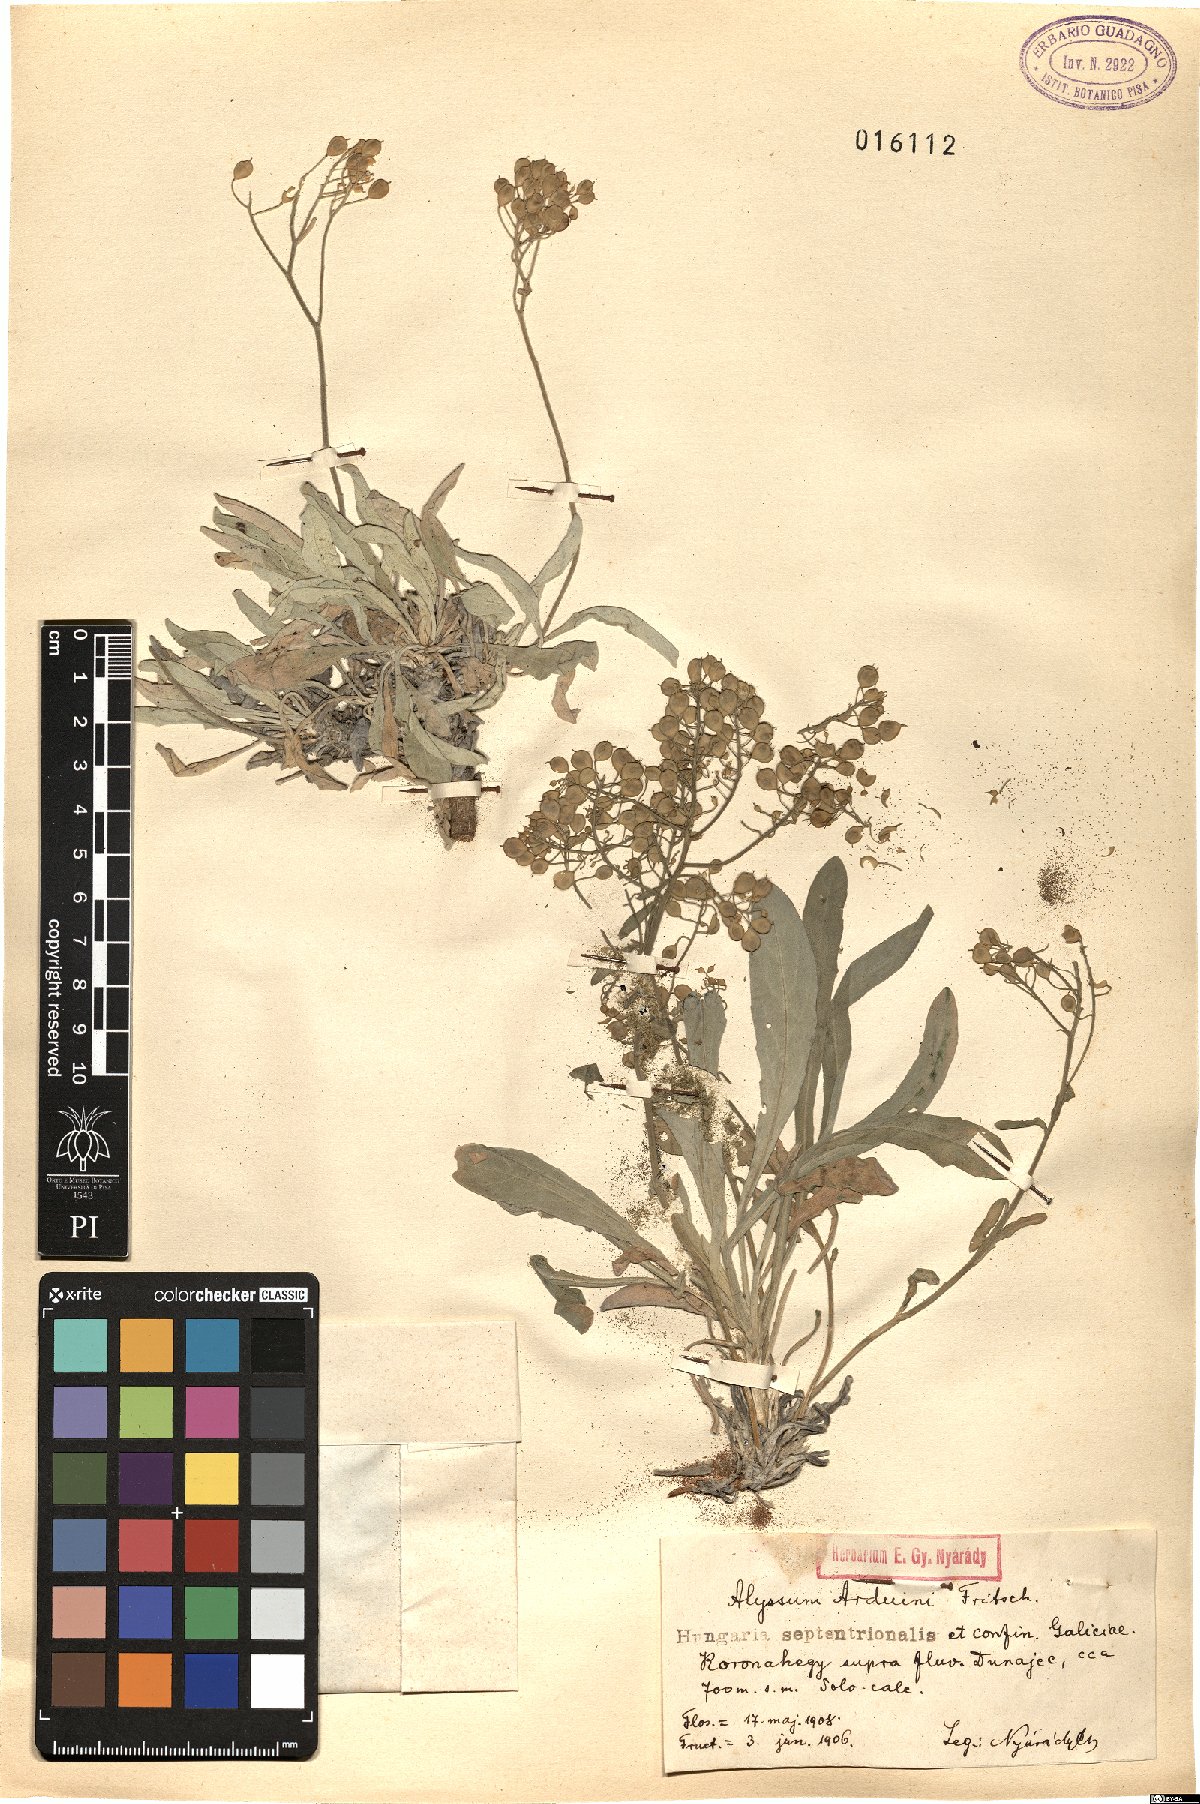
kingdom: Plantae
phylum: Tracheophyta
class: Magnoliopsida
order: Brassicales
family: Brassicaceae
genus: Aurinia
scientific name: Aurinia saxatilis
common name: Golden-tuft alyssum
